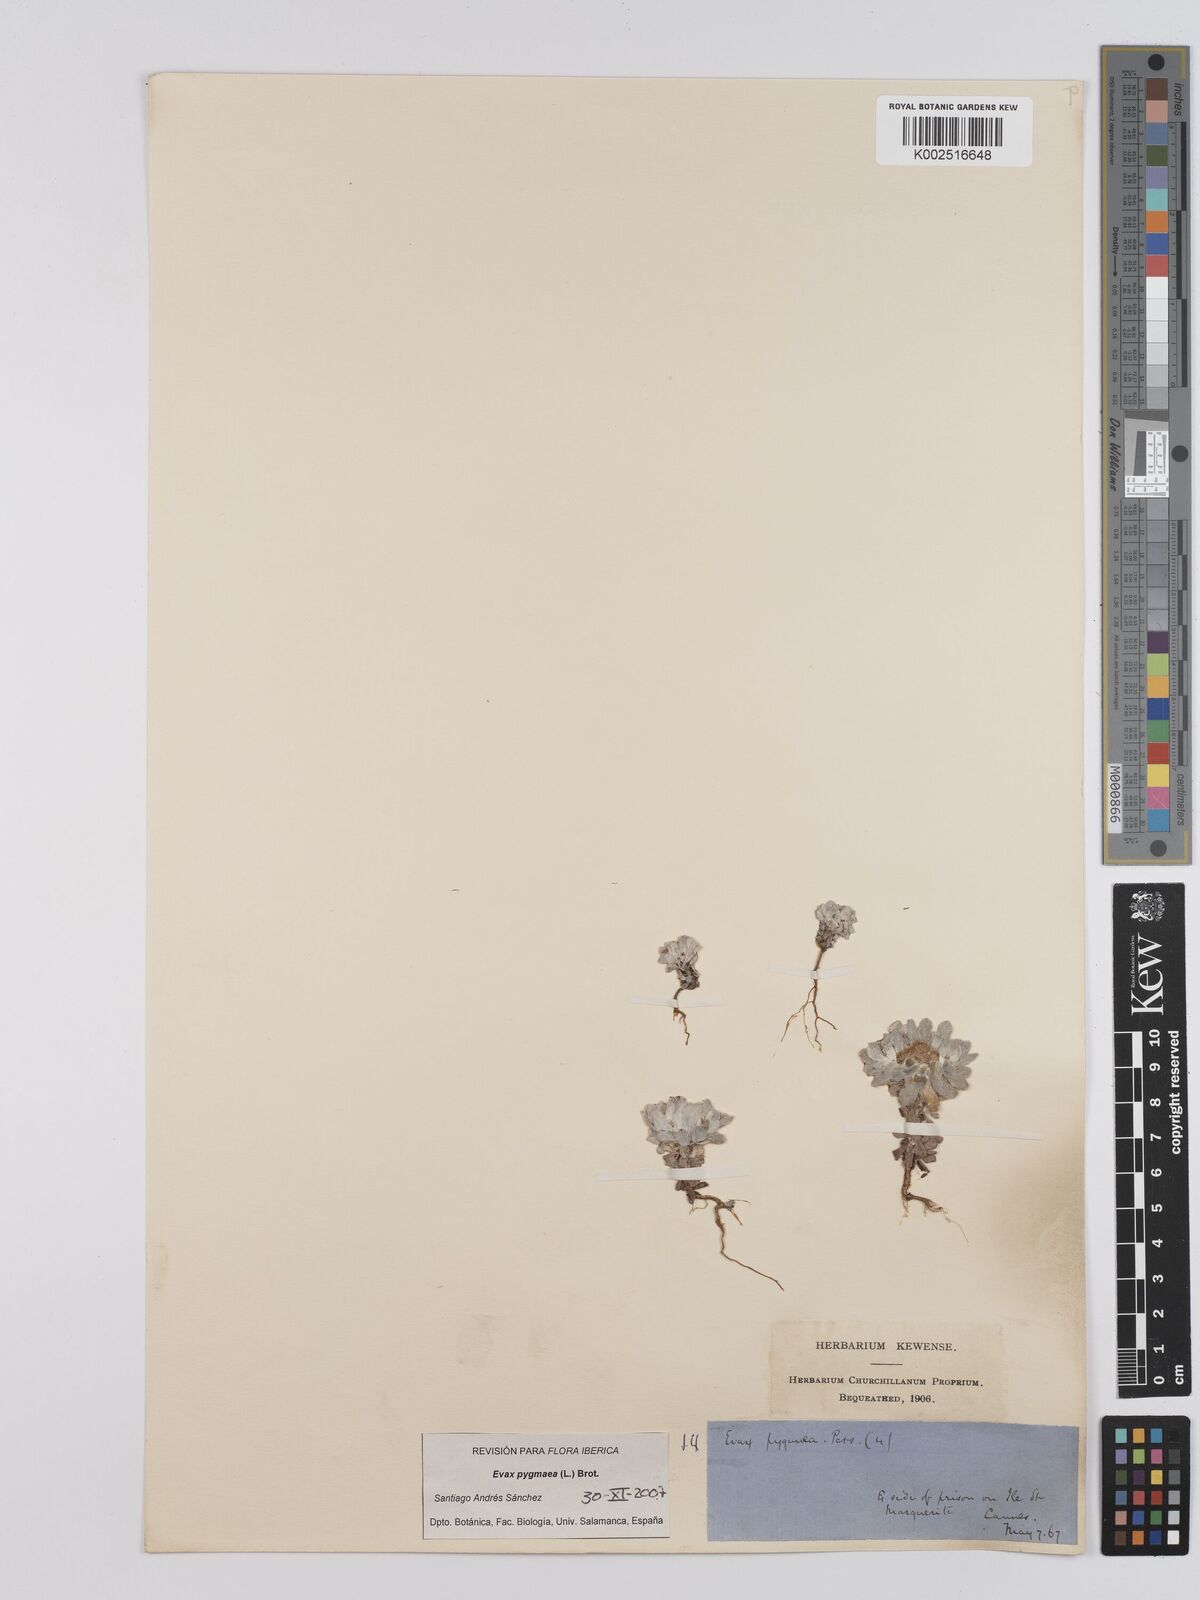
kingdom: Plantae
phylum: Tracheophyta
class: Magnoliopsida
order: Asterales
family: Asteraceae
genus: Filago
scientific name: Filago pygmaea
